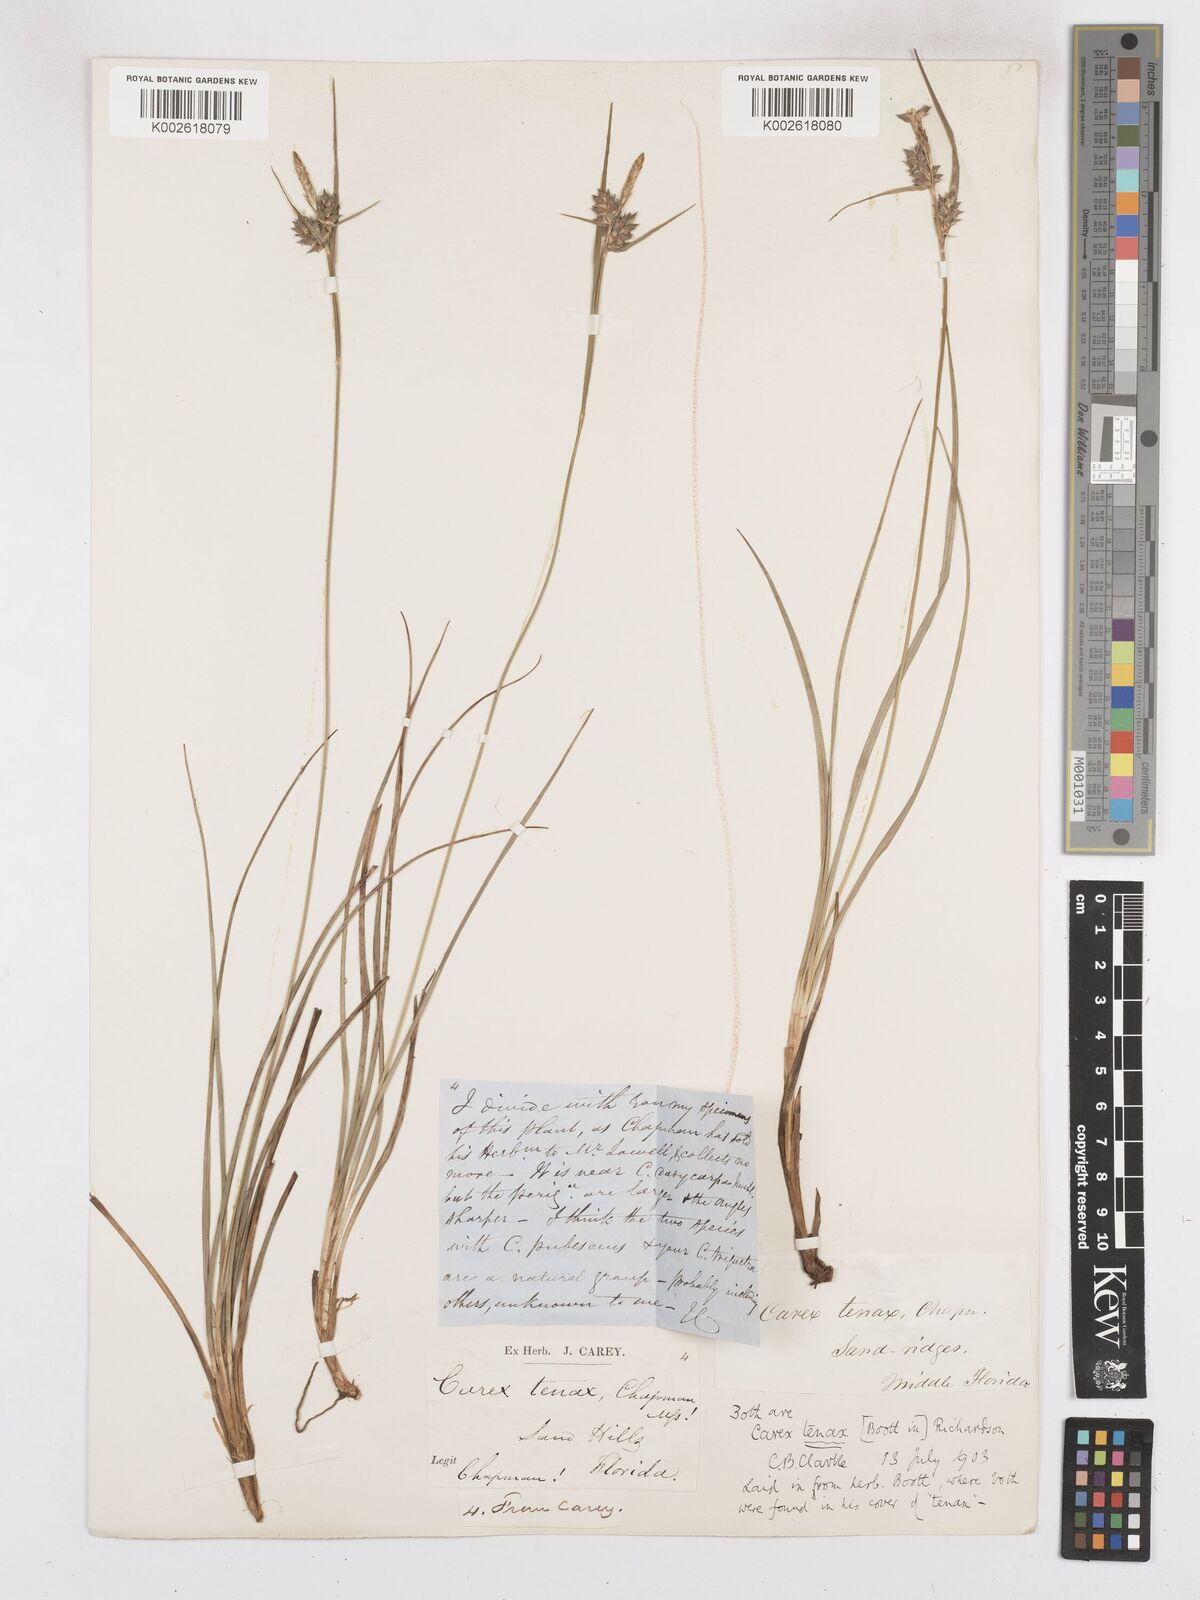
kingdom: Plantae
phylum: Tracheophyta
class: Liliopsida
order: Poales
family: Cyperaceae
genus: Carex
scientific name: Carex tenax
